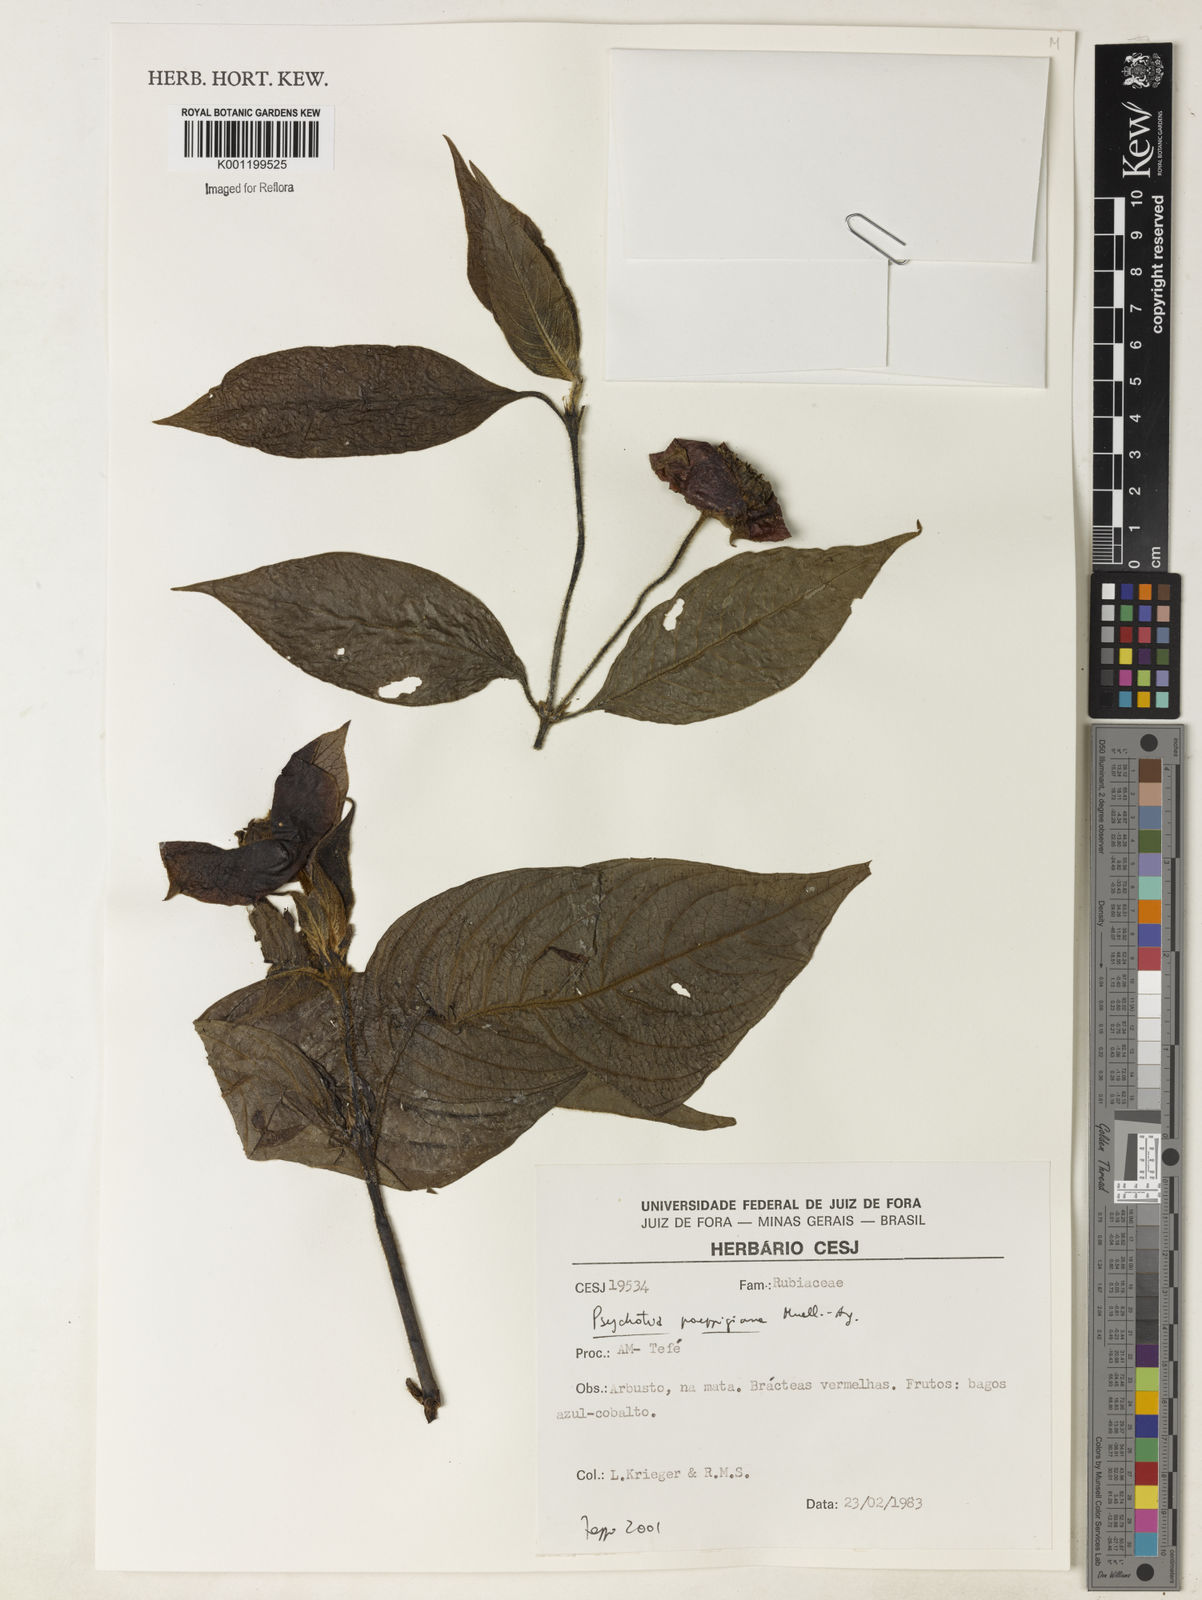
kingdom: Plantae
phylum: Tracheophyta
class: Magnoliopsida
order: Gentianales
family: Rubiaceae
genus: Psychotria
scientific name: Psychotria
